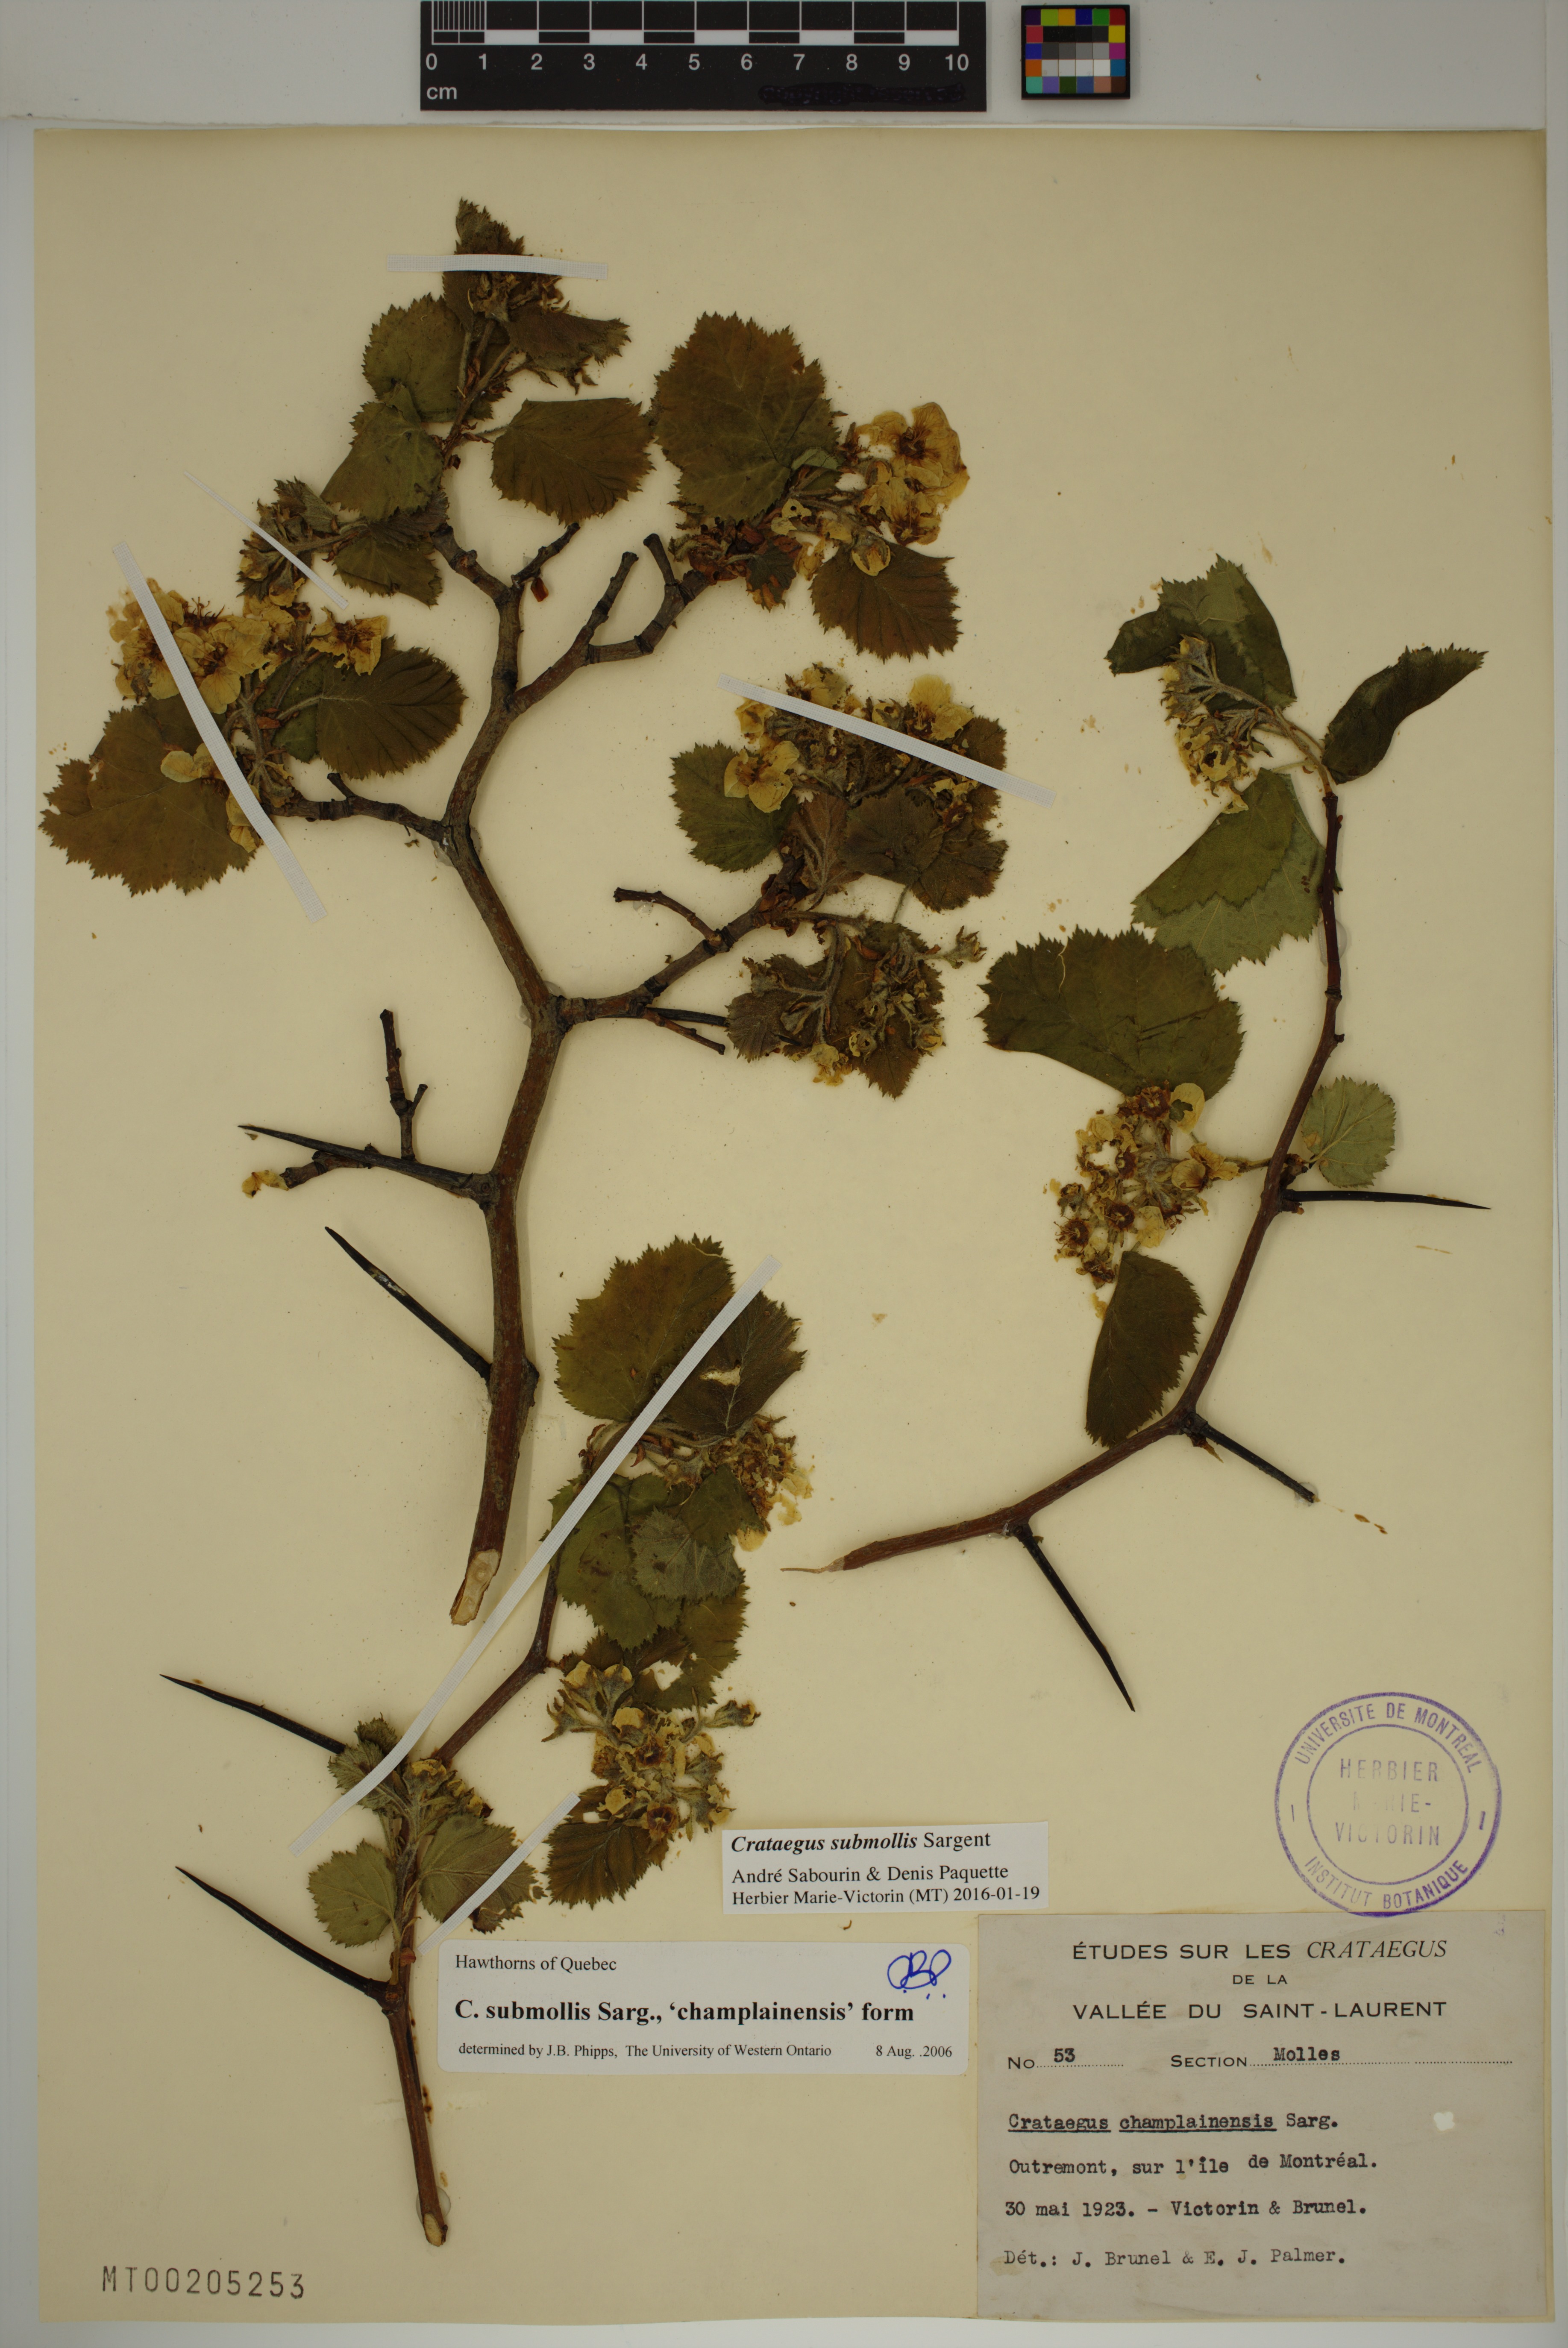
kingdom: Plantae
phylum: Tracheophyta
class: Magnoliopsida
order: Rosales
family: Rosaceae
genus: Crataegus
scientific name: Crataegus submollis
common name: Hairy cockspurthorn
